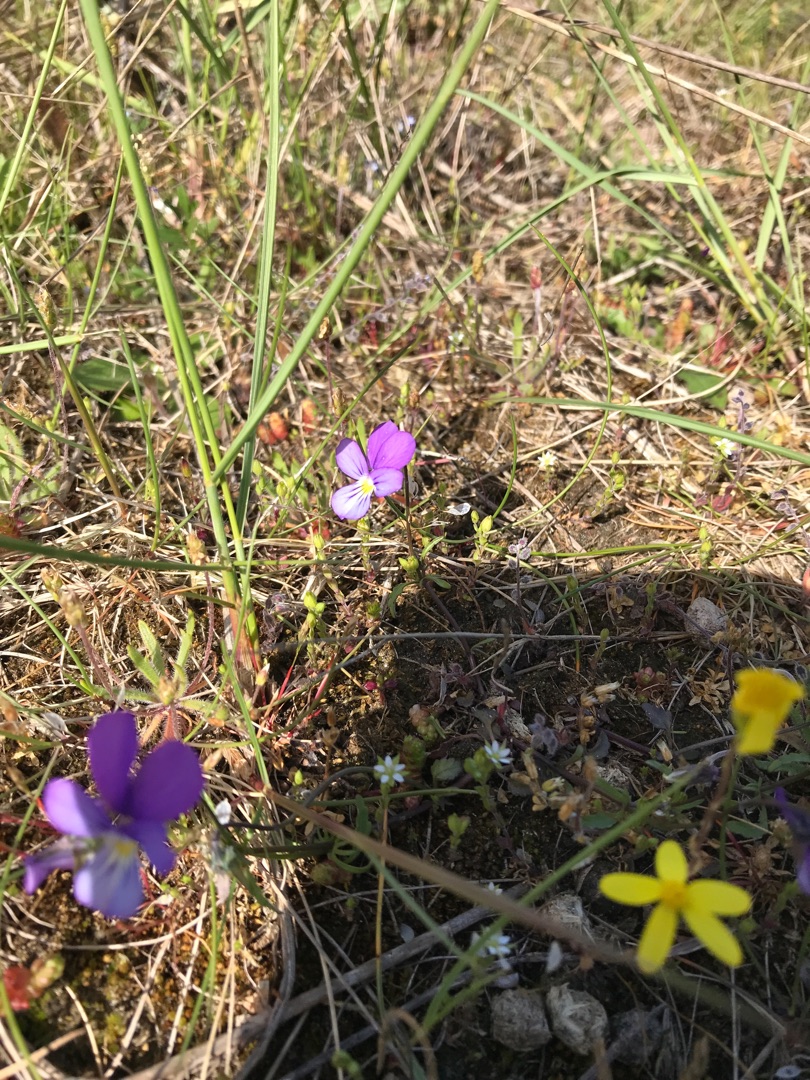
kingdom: Plantae
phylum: Tracheophyta
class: Magnoliopsida
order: Malpighiales
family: Violaceae
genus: Viola
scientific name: Viola tricolor
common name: Stedmoderblomst
